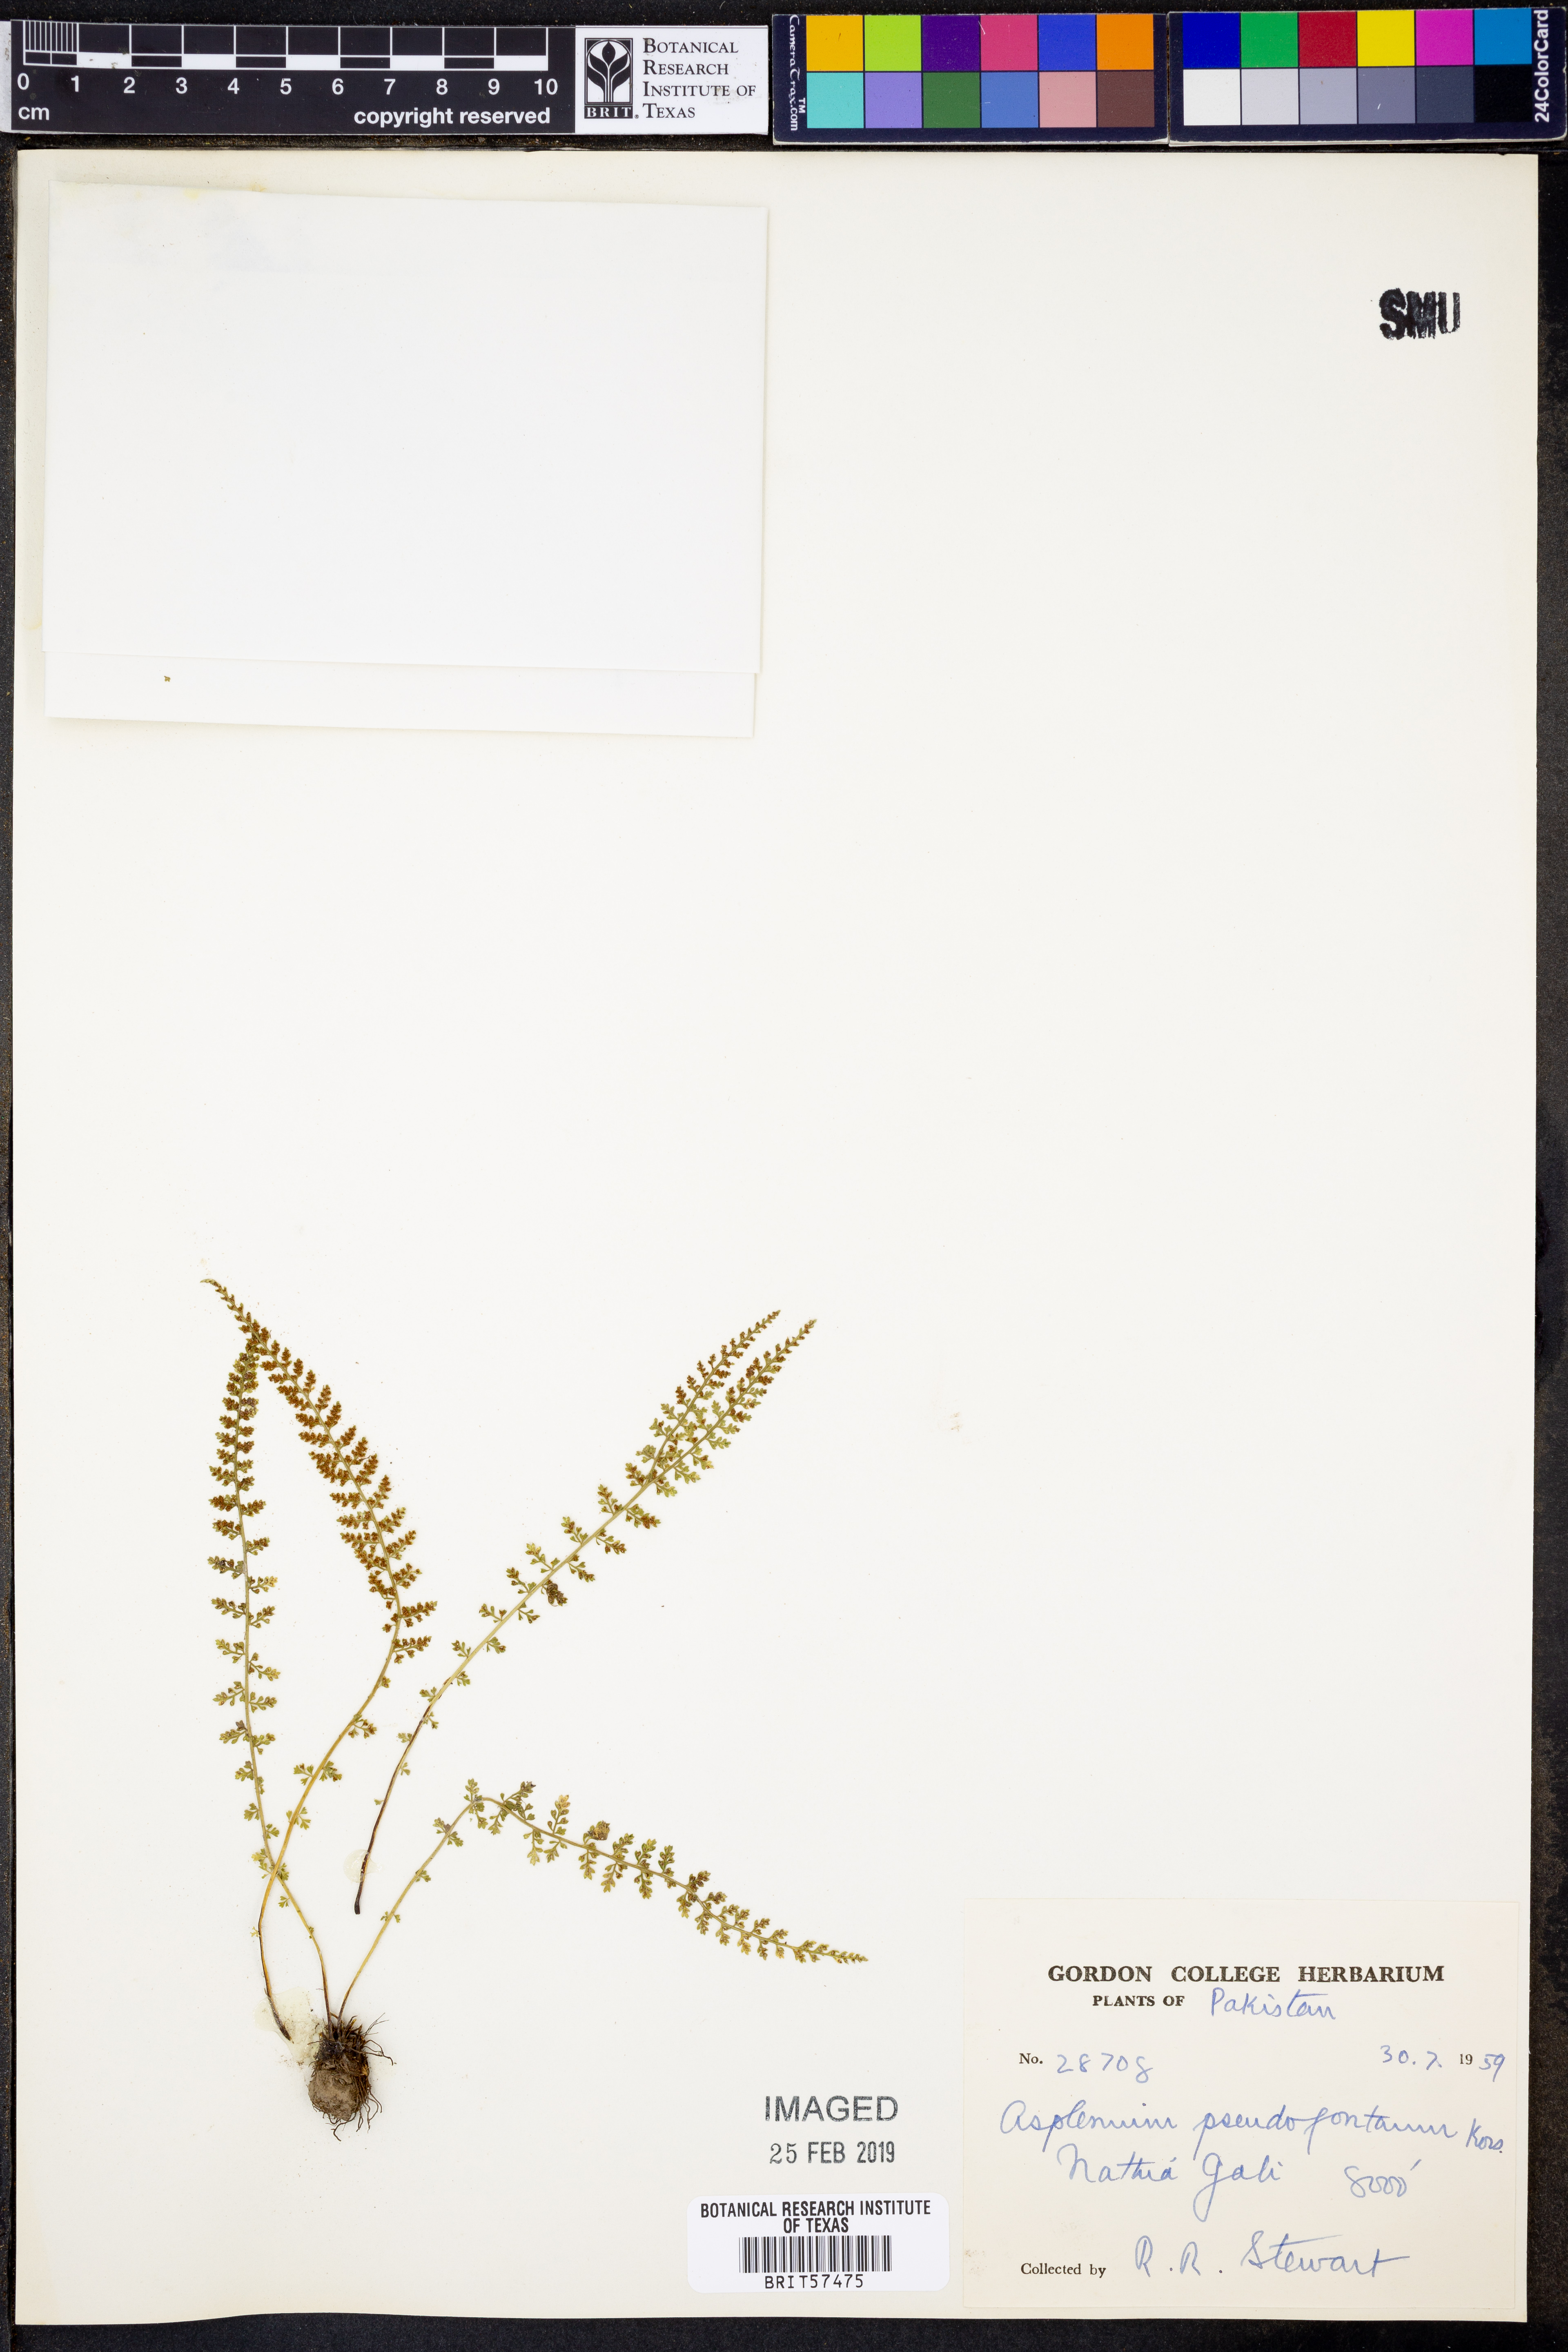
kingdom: Plantae
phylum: Tracheophyta
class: Polypodiopsida
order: Polypodiales
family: Aspleniaceae
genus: Asplenium
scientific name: Asplenium
